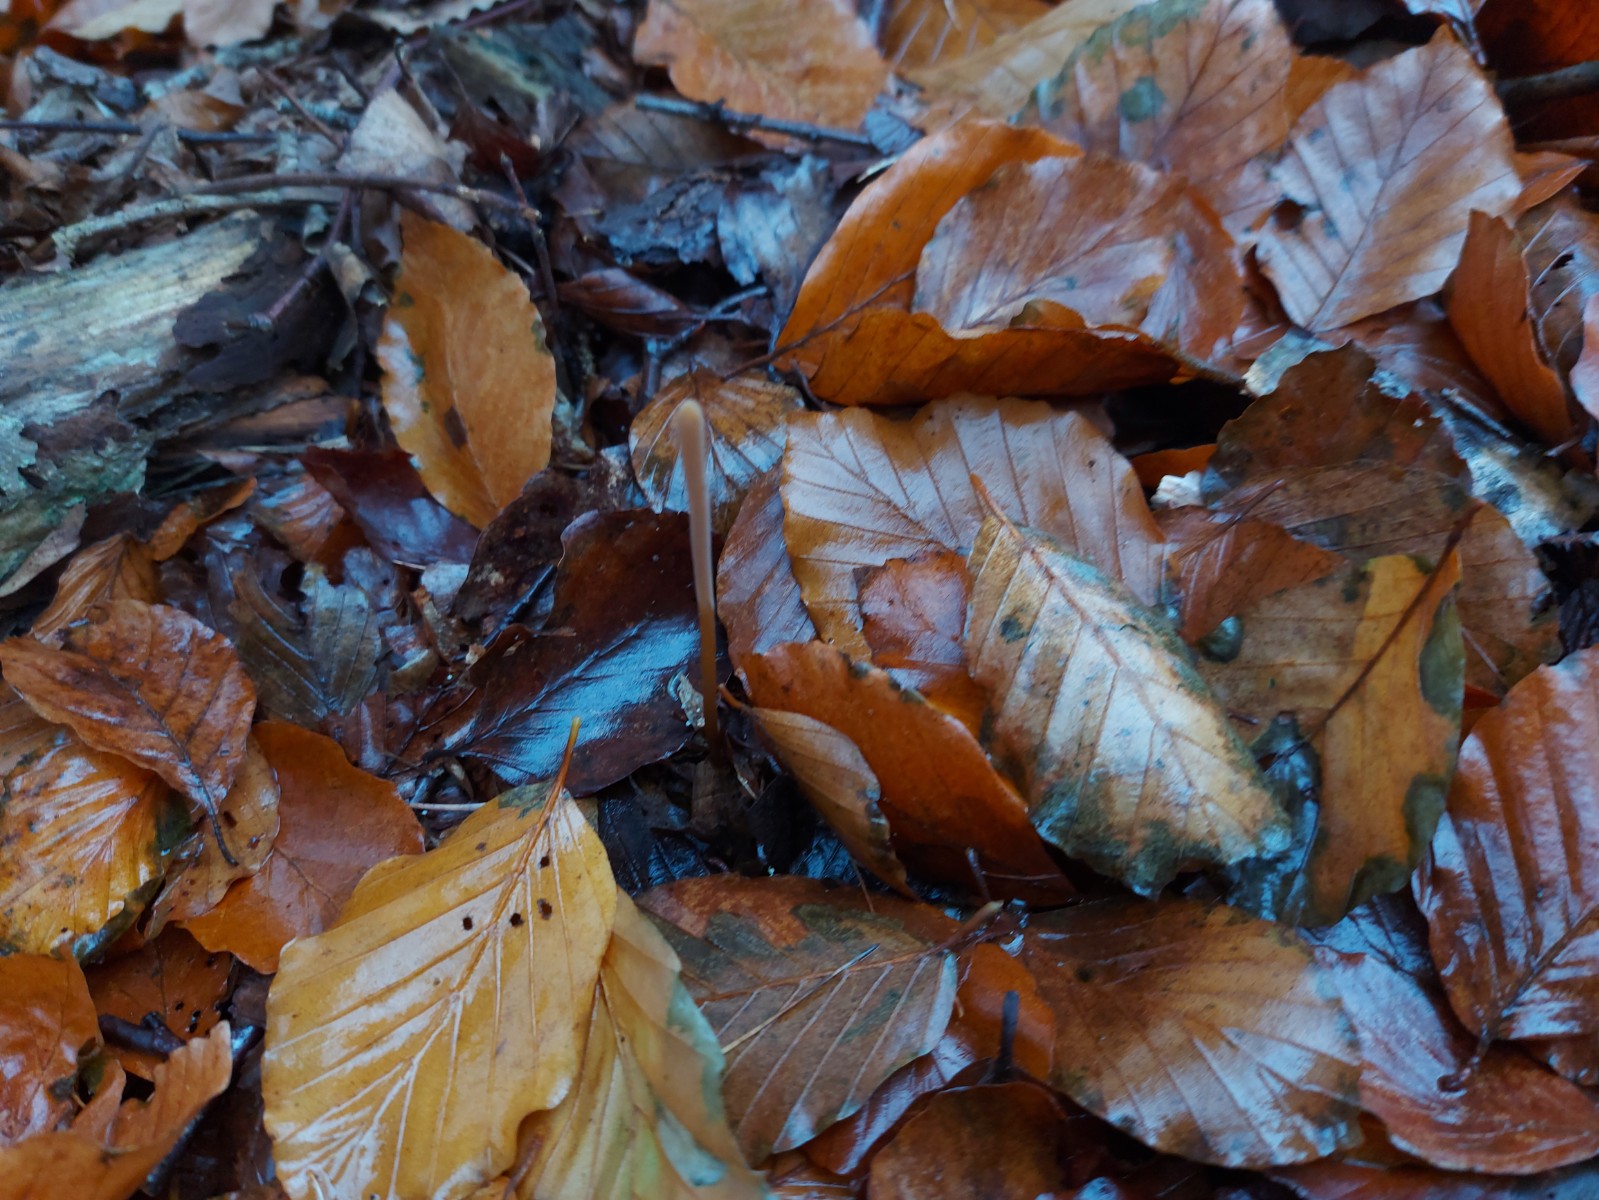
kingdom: Fungi
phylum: Basidiomycota
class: Agaricomycetes
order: Agaricales
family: Typhulaceae
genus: Typhula
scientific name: Typhula fistulosa
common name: pibet rørkølle
